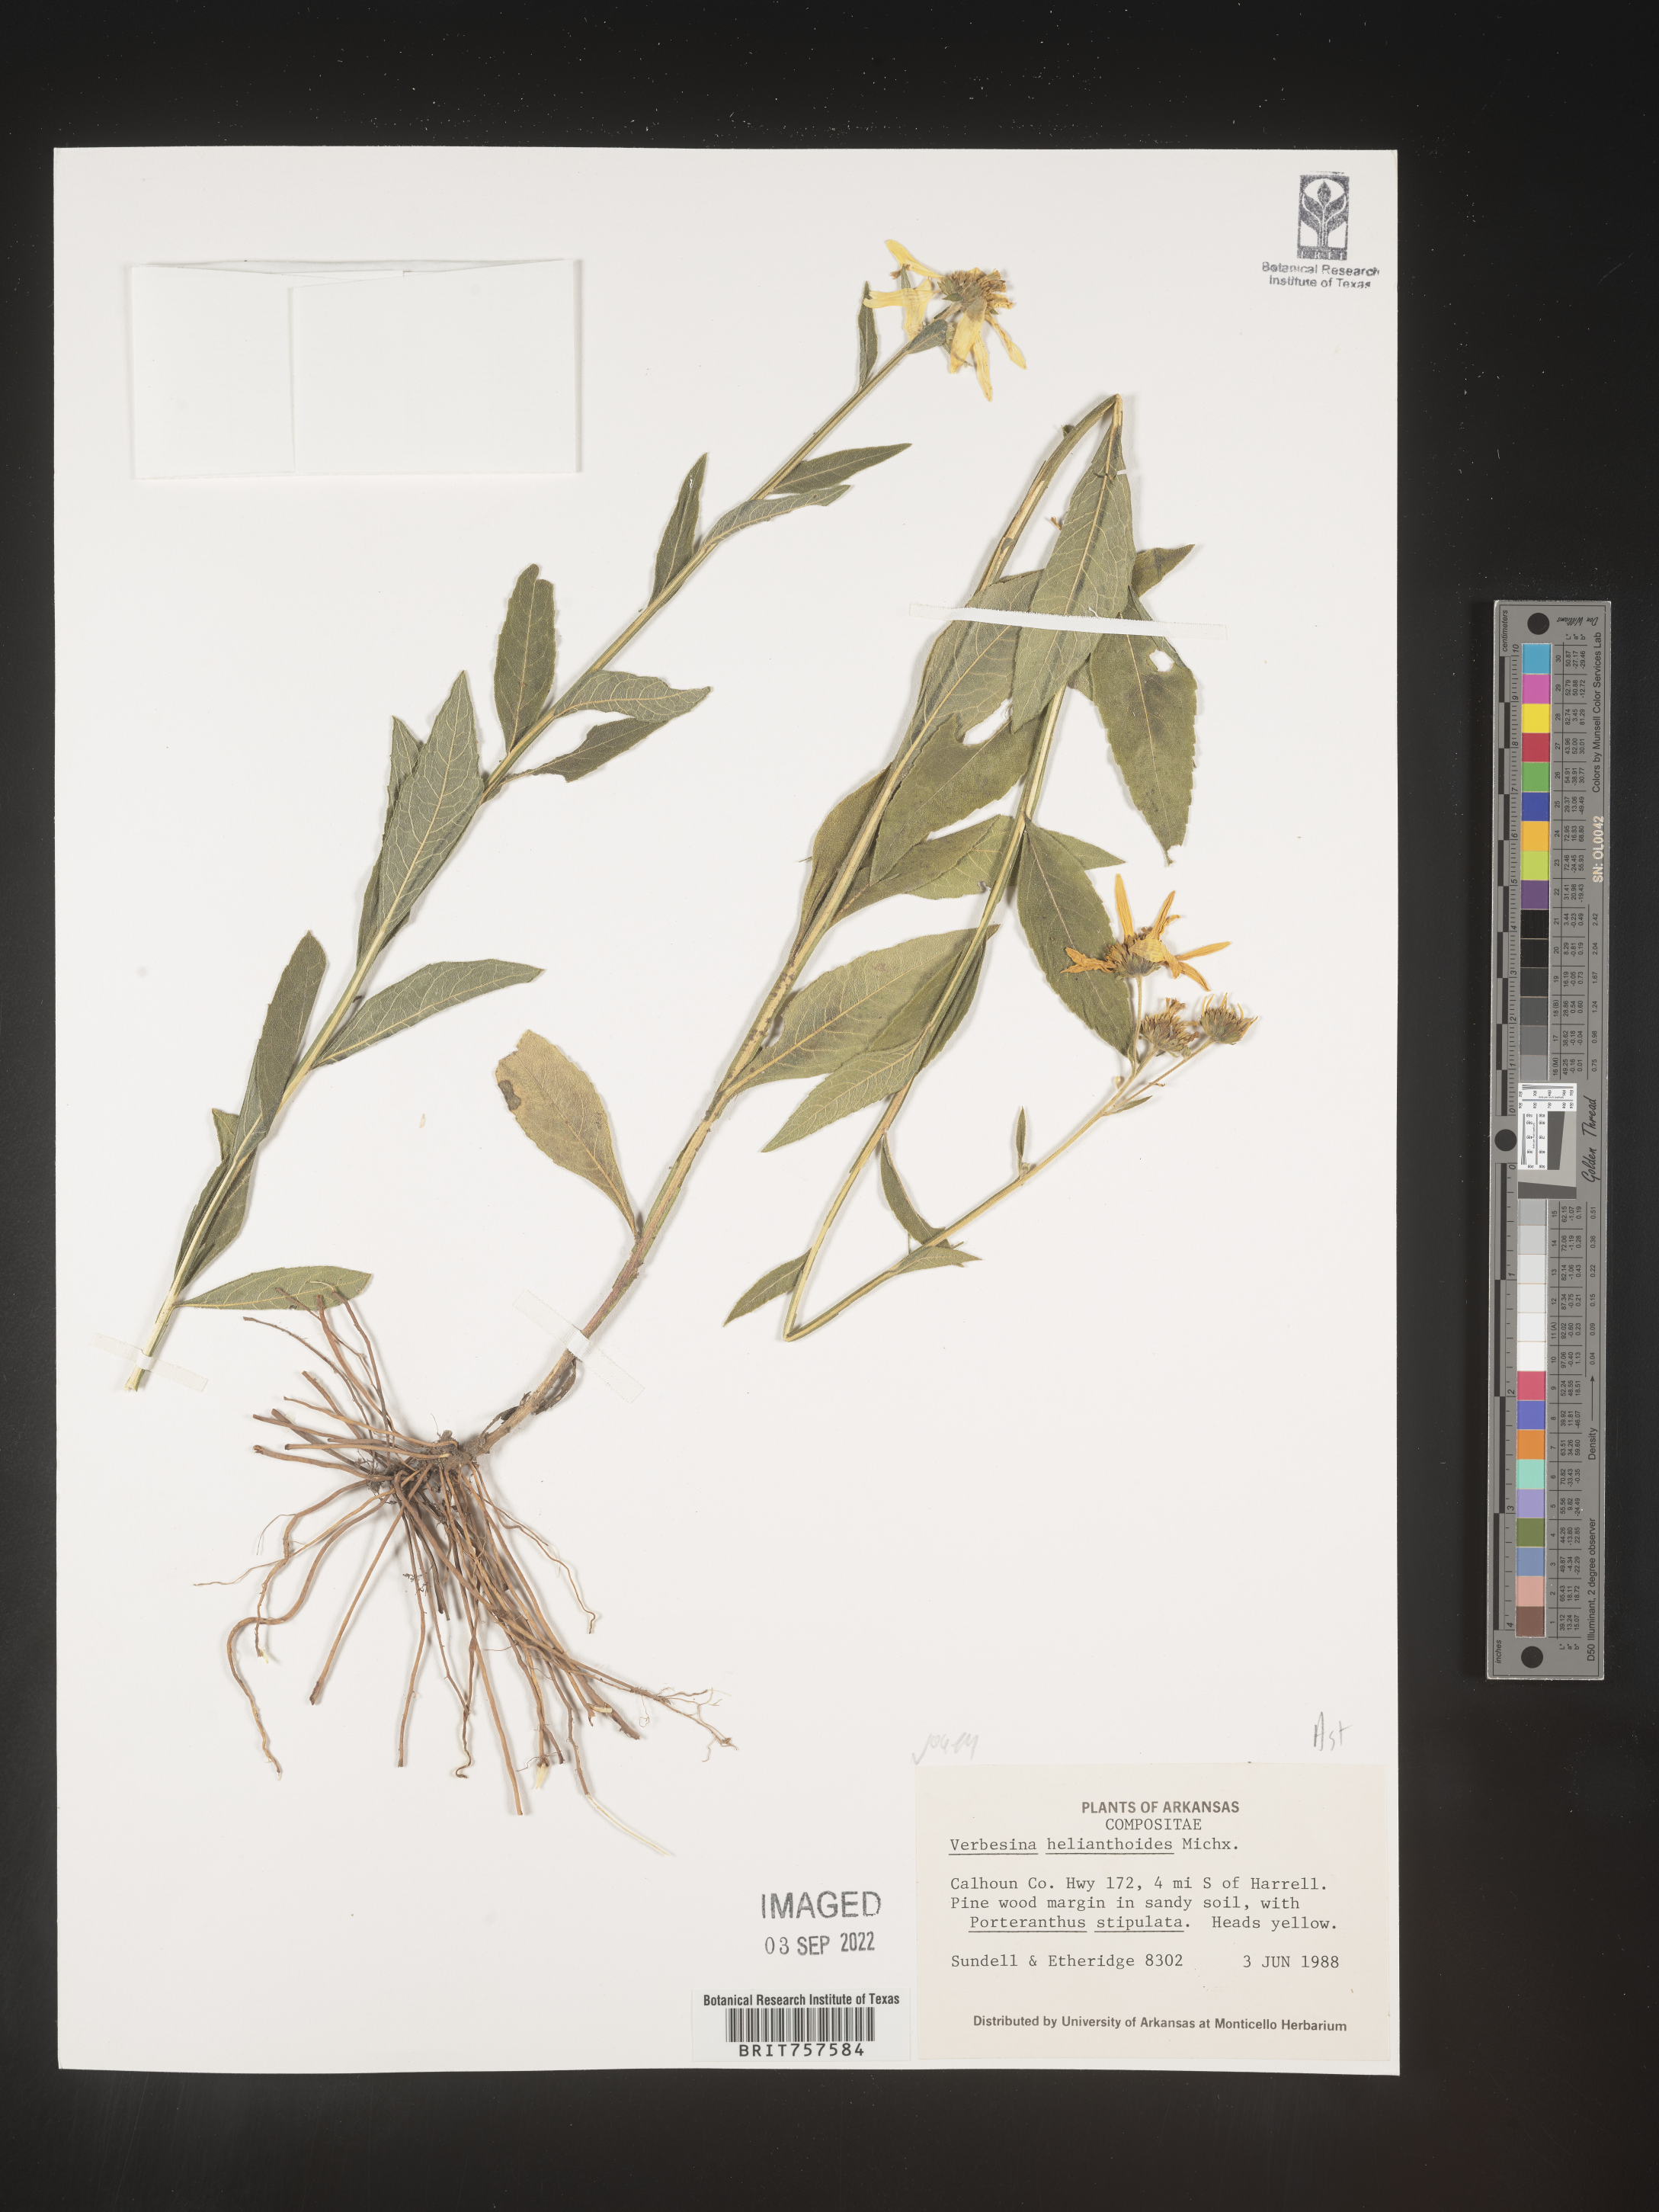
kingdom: Plantae
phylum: Tracheophyta
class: Magnoliopsida
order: Asterales
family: Asteraceae
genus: Verbesina
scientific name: Verbesina helianthoides
